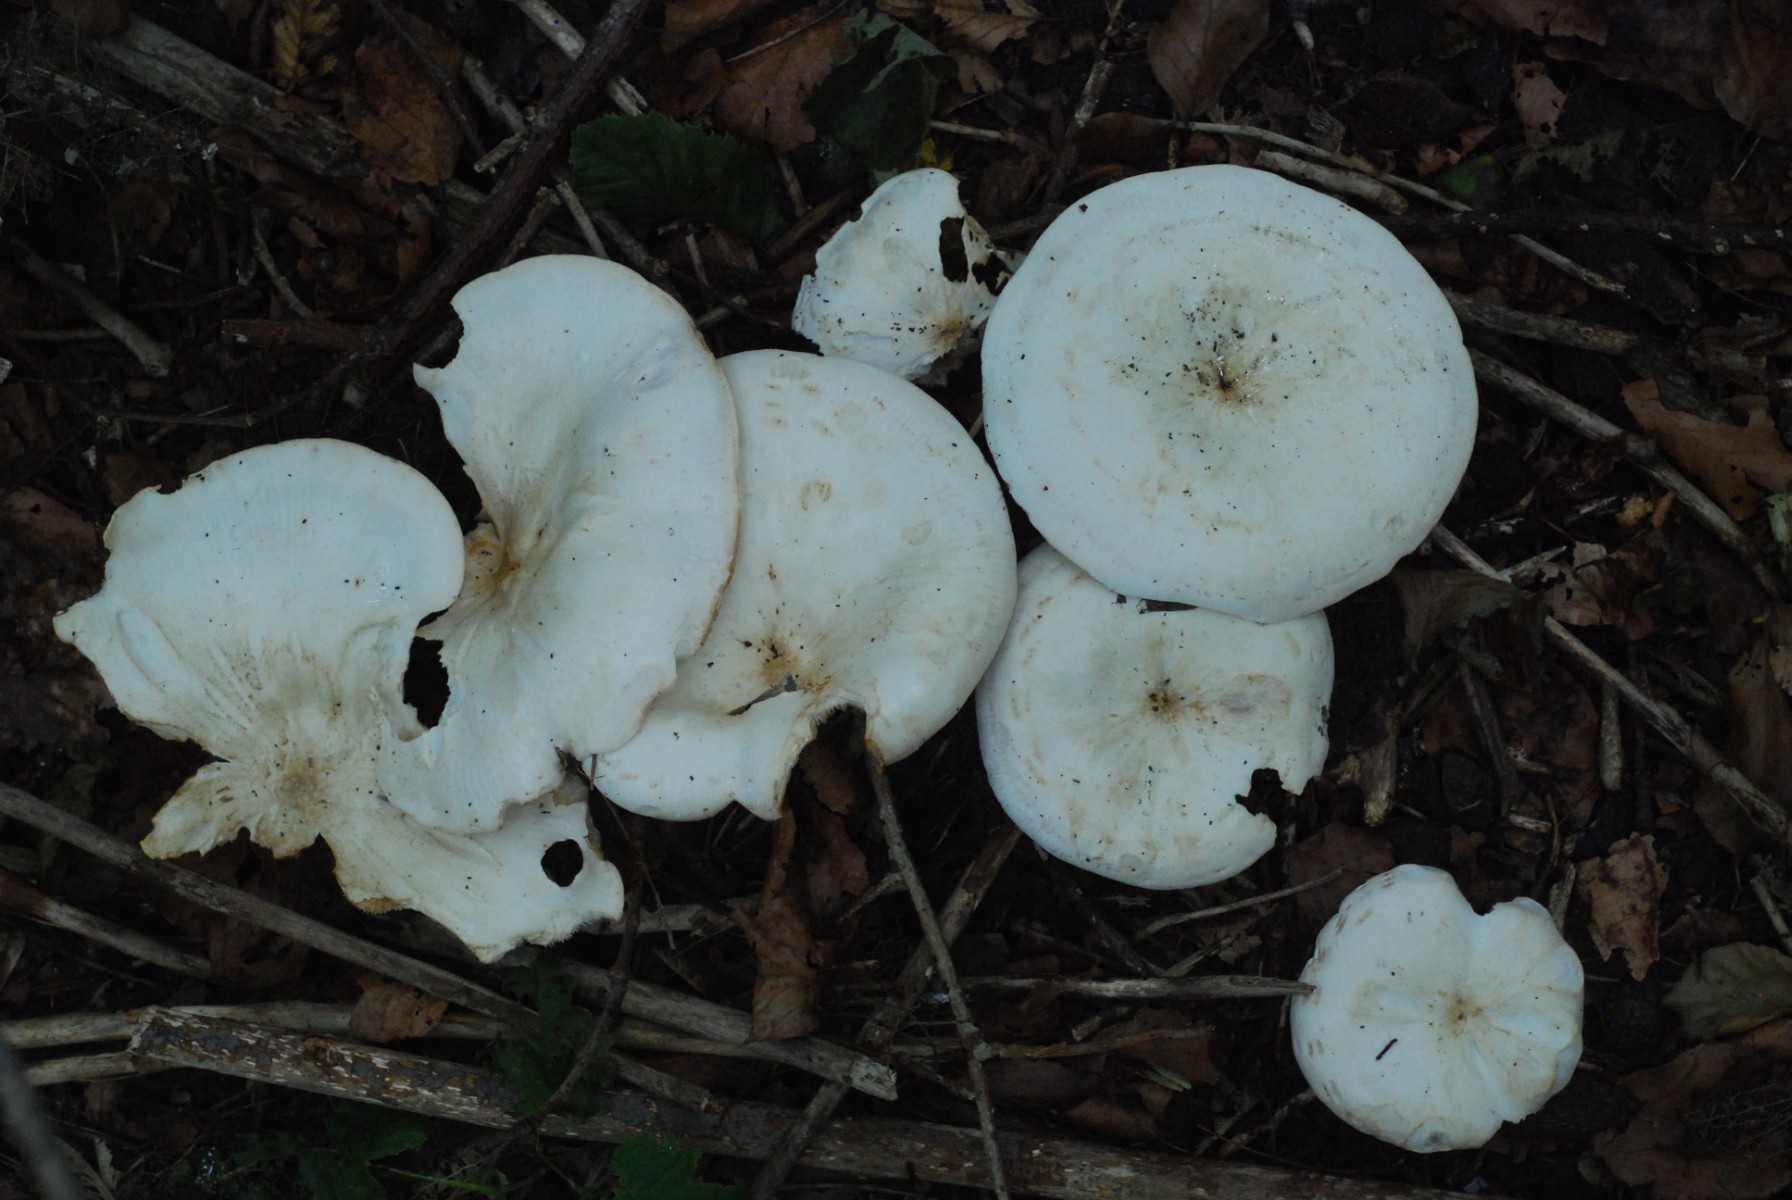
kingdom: Fungi
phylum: Basidiomycota
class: Agaricomycetes
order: Agaricales
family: Tricholomataceae
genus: Aspropaxillus
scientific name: Aspropaxillus giganteus
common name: kæmpe-tragtridderhat
